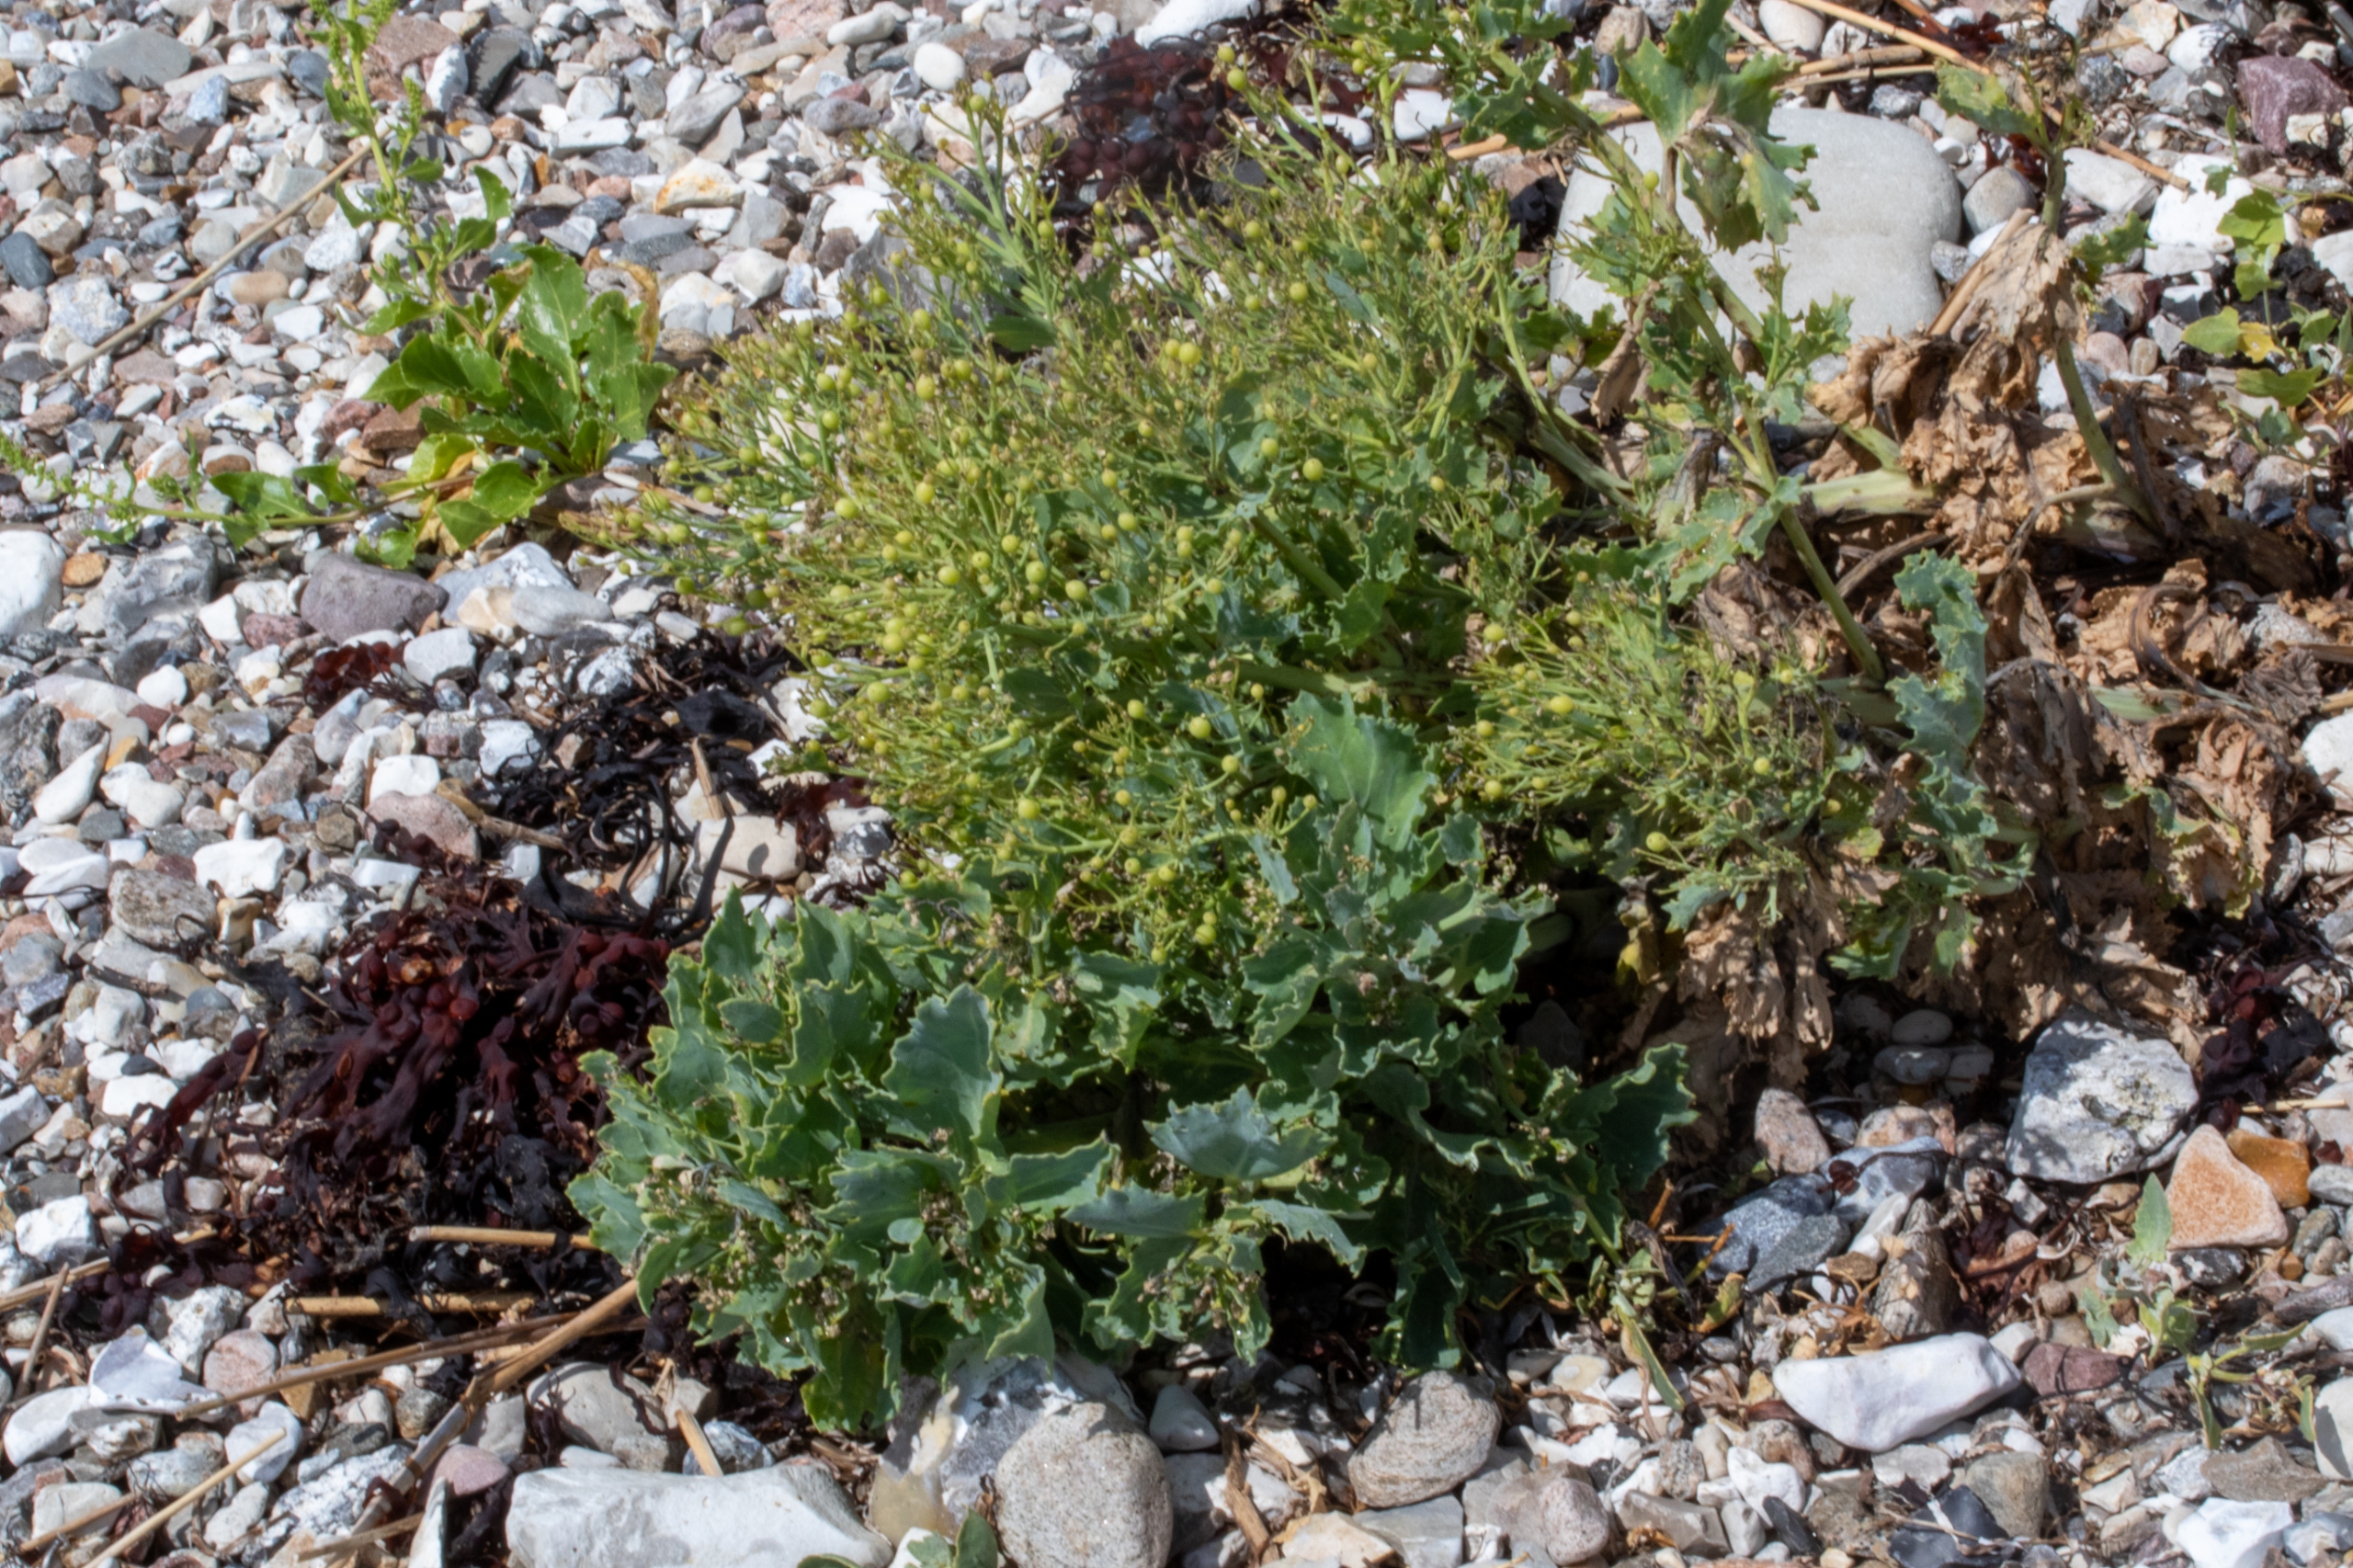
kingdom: Plantae
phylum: Tracheophyta
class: Magnoliopsida
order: Brassicales
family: Brassicaceae
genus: Crambe
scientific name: Crambe maritima
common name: Strandkål
